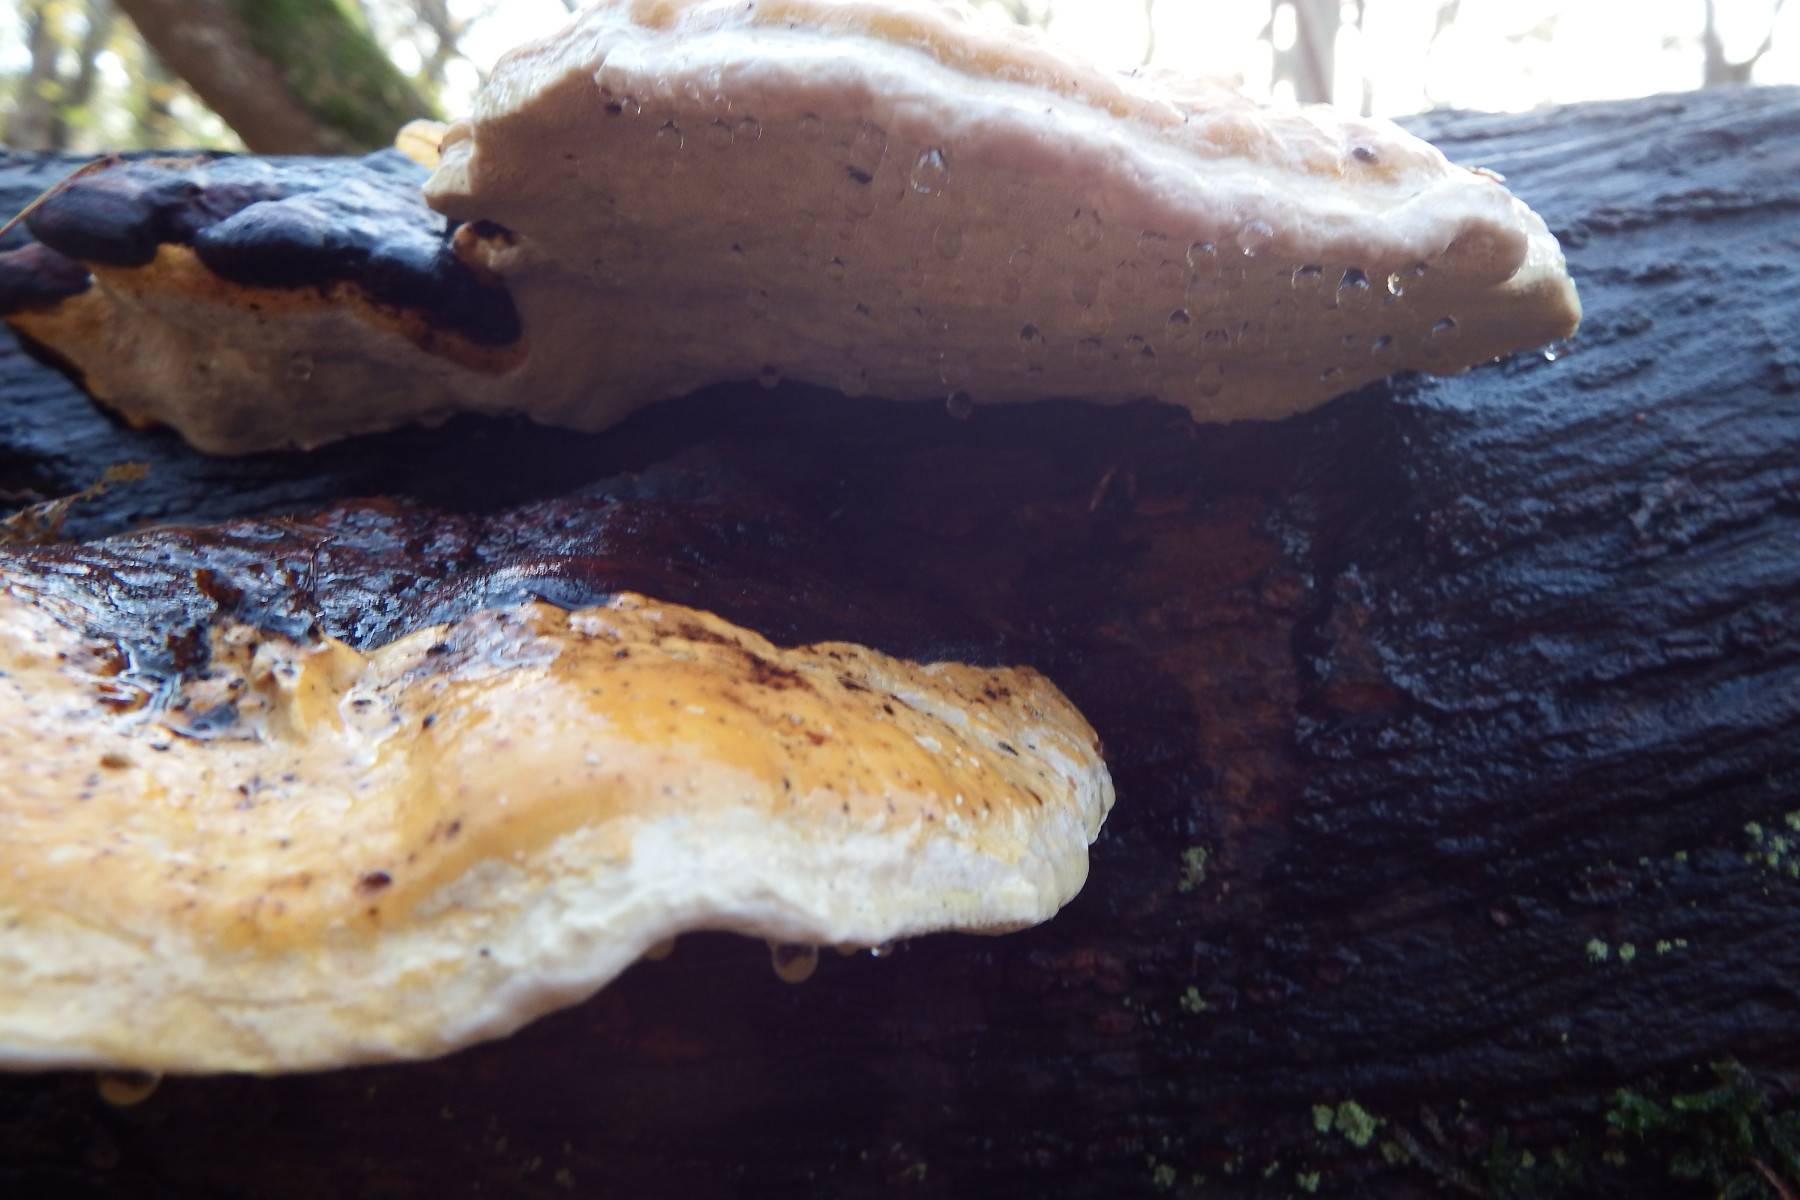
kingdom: Fungi
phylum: Basidiomycota
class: Agaricomycetes
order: Polyporales
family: Fomitopsidaceae
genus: Fomitopsis
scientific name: Fomitopsis pinicola
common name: randbæltet hovporesvamp
